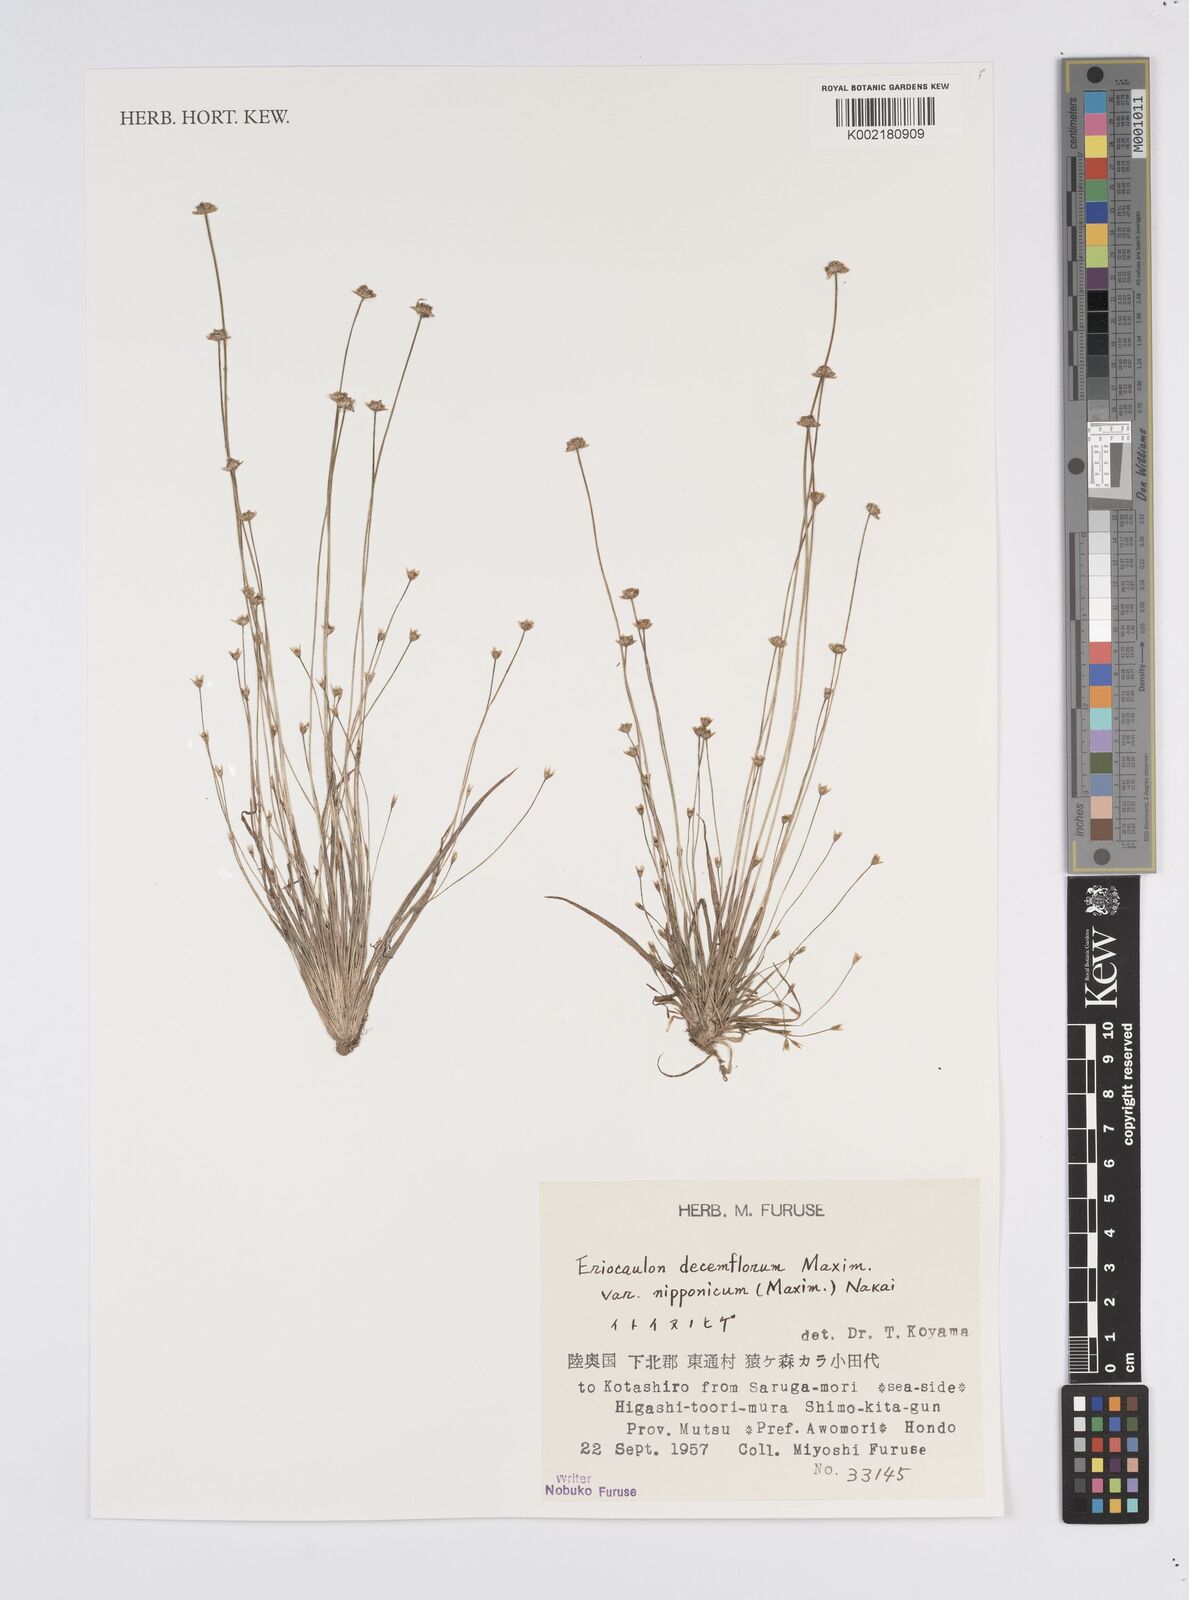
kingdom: Plantae
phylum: Tracheophyta
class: Liliopsida
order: Poales
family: Eriocaulaceae
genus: Eriocaulon
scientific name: Eriocaulon decemflorum
